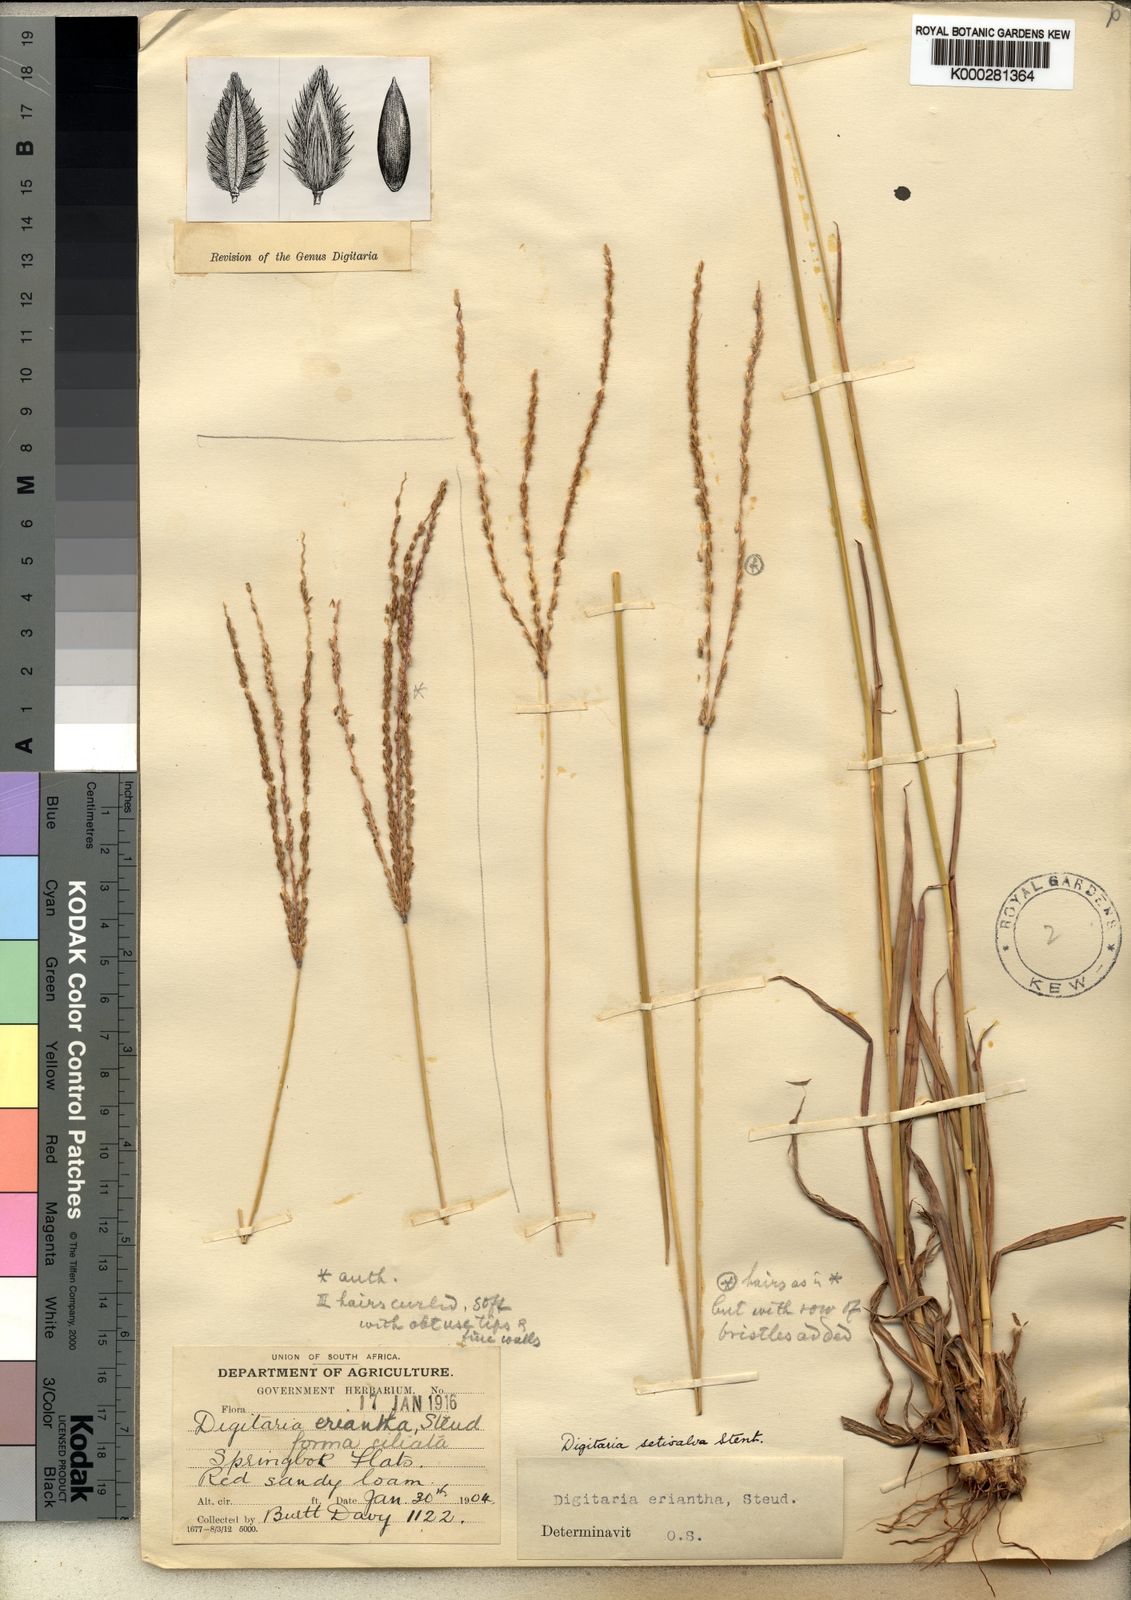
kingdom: Plantae
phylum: Tracheophyta
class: Liliopsida
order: Poales
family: Poaceae
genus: Digitaria
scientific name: Digitaria milanjiana
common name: Madagascar crabgrass
